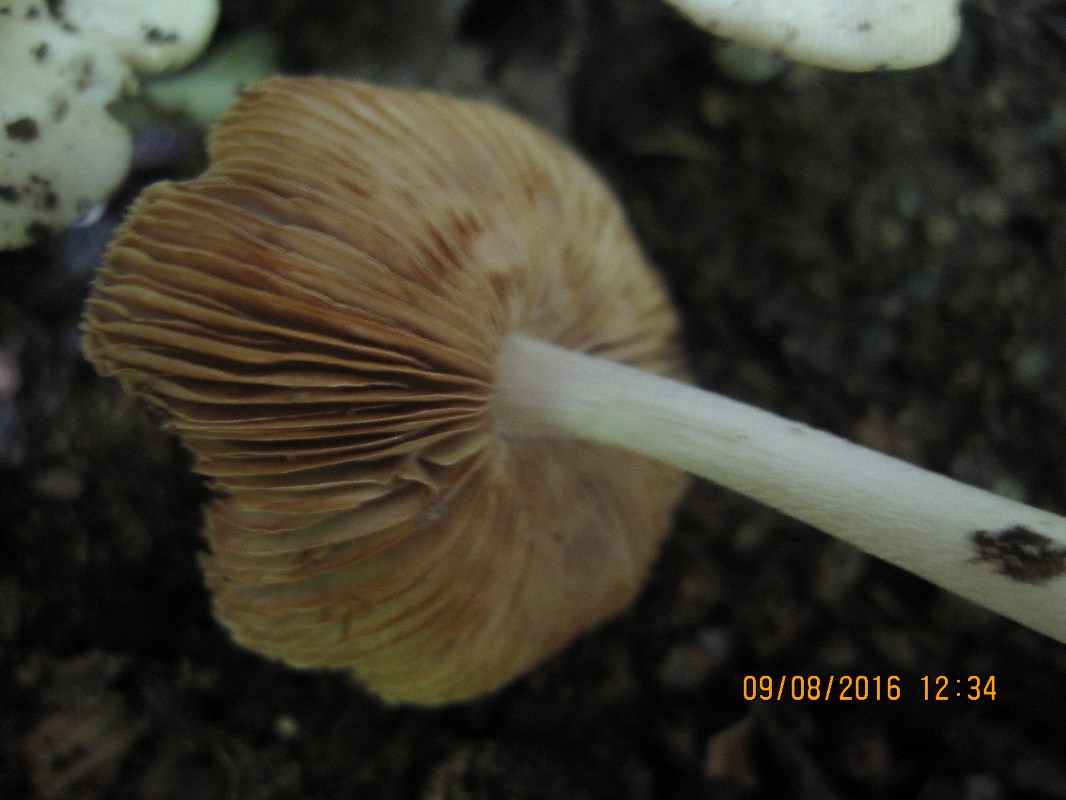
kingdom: Fungi
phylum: Basidiomycota
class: Agaricomycetes
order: Agaricales
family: Bolbitiaceae
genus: Bolbitius
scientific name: Bolbitius reticulatus
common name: Netted fieldcap
